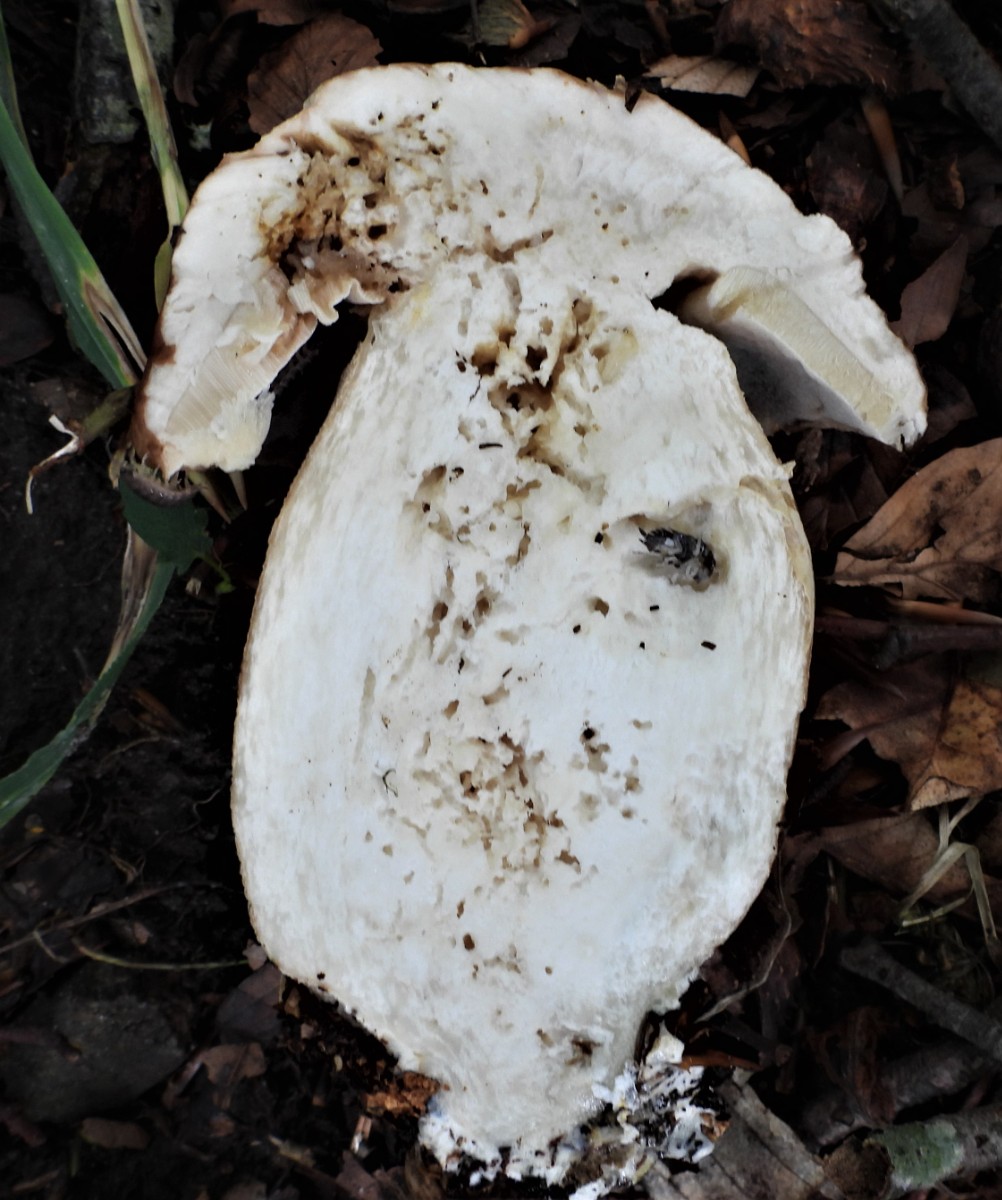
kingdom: Fungi
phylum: Basidiomycota
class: Agaricomycetes
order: Boletales
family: Boletaceae
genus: Boletus
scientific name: Boletus edulis
